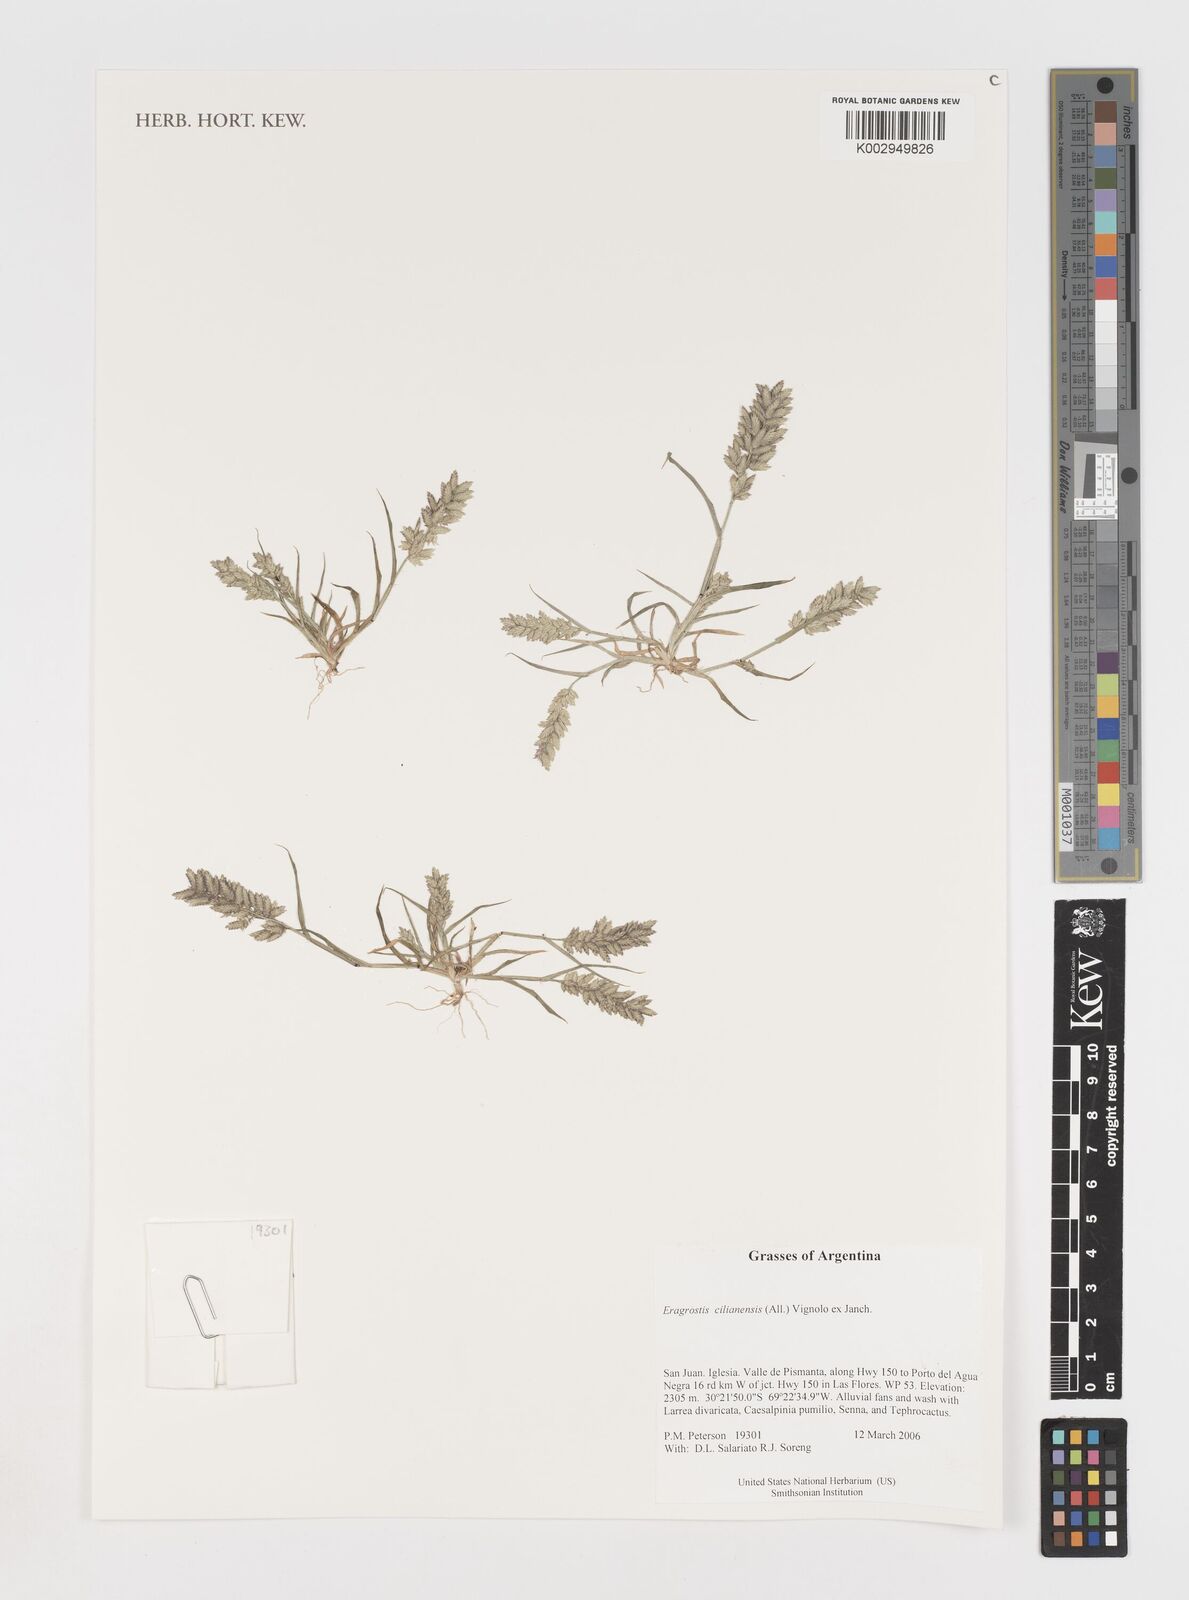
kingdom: Plantae
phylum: Tracheophyta
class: Liliopsida
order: Poales
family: Poaceae
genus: Eragrostis
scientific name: Eragrostis cilianensis
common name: Stinkgrass
